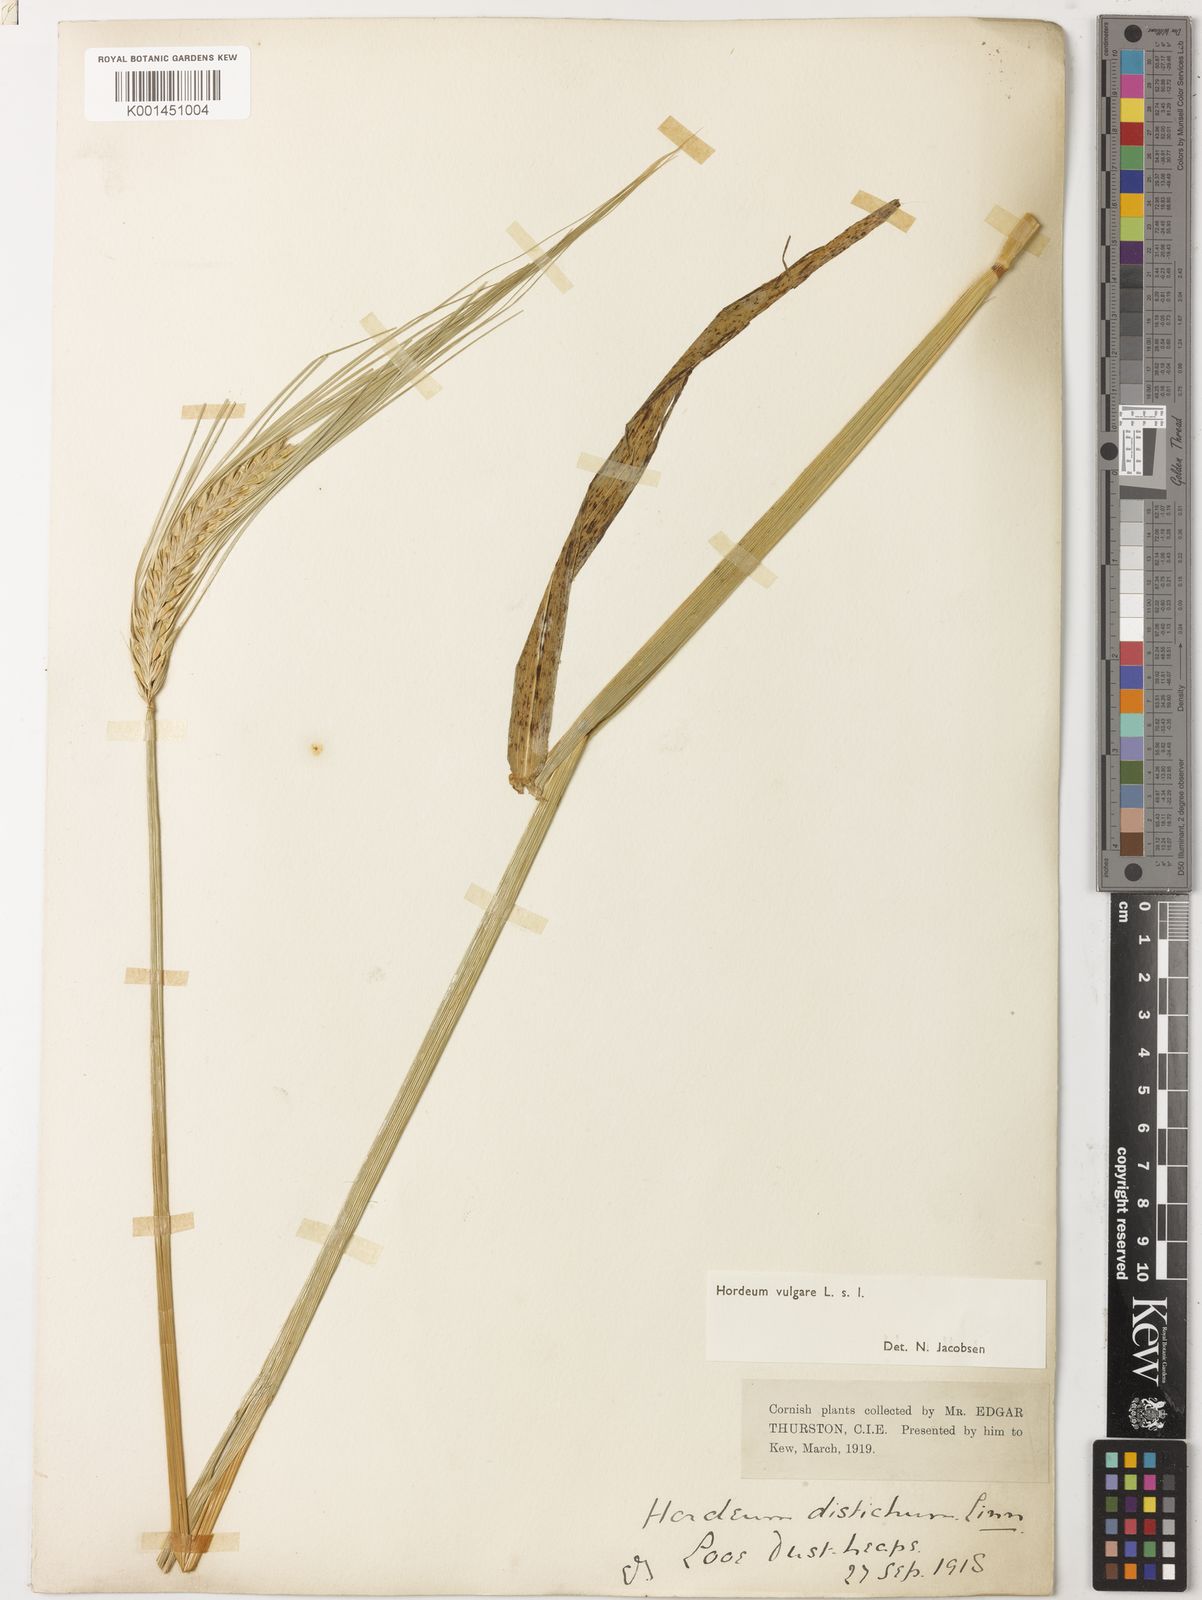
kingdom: Plantae
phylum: Tracheophyta
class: Liliopsida
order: Poales
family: Poaceae
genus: Hordeum
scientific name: Hordeum vulgare
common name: Common barley
